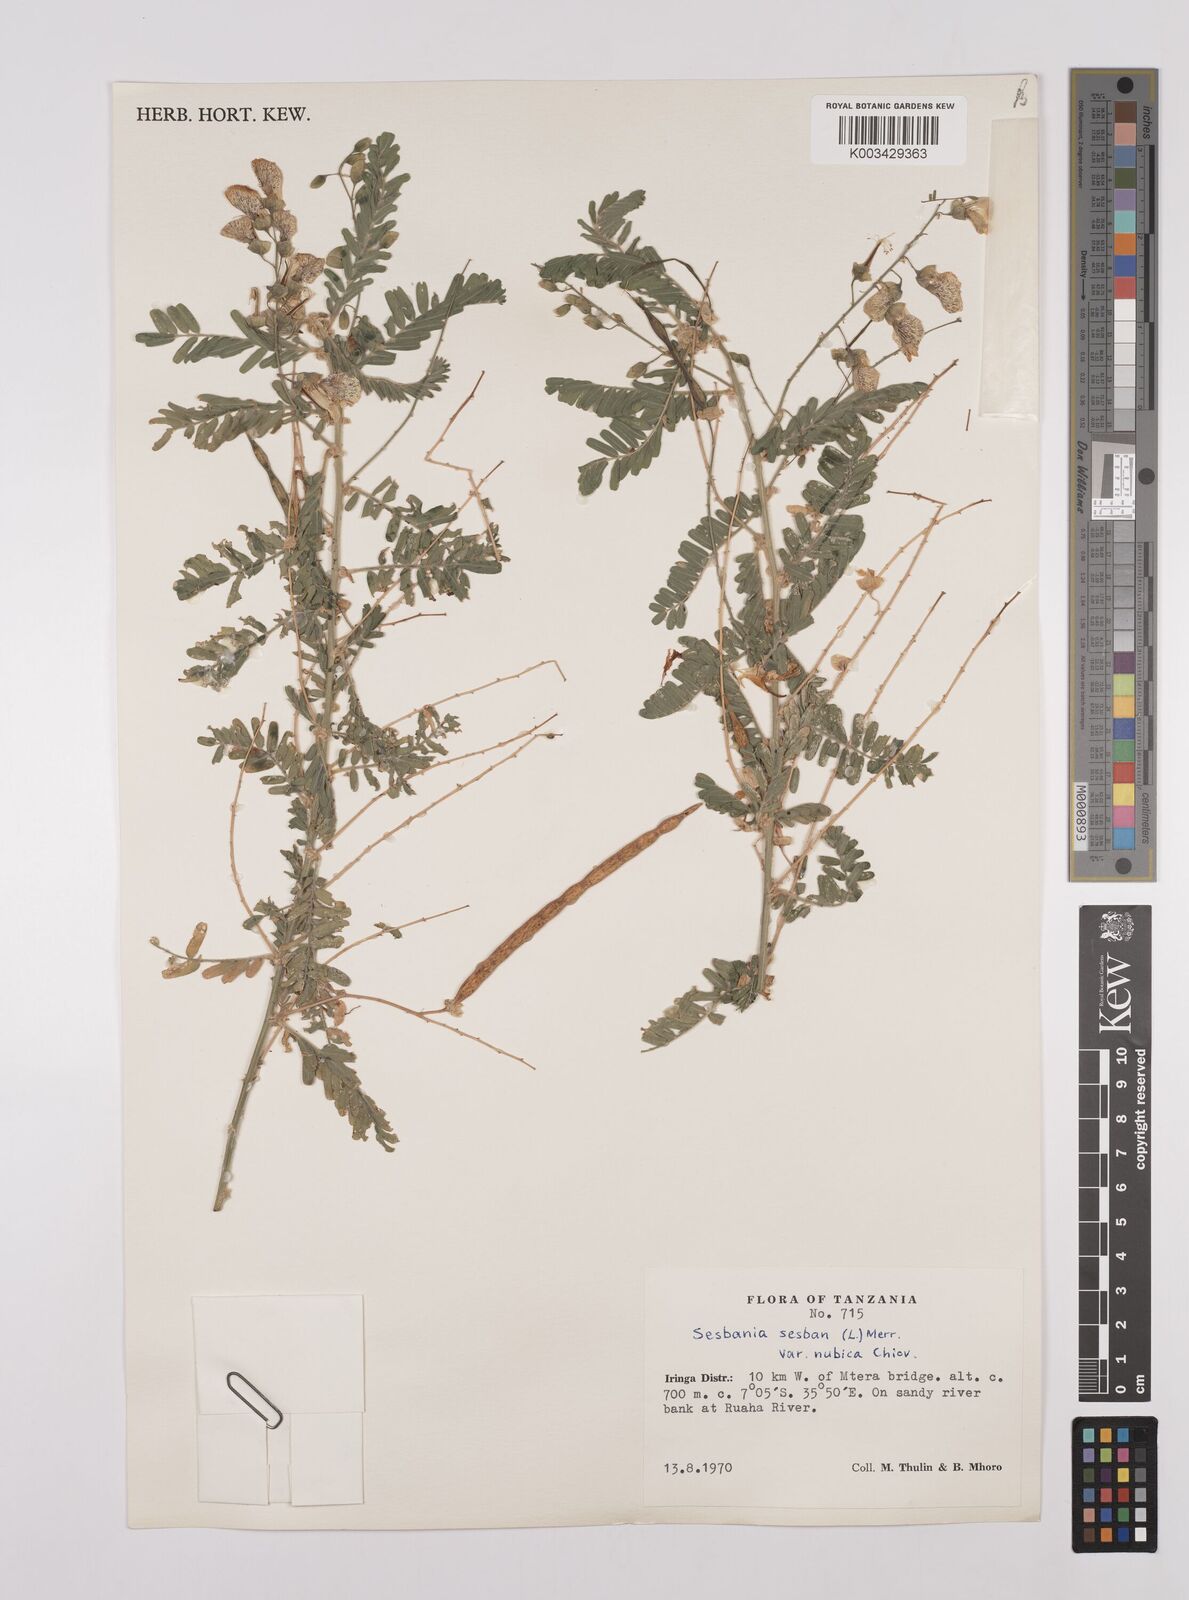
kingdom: Plantae
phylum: Tracheophyta
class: Magnoliopsida
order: Fabales
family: Fabaceae
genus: Sesbania
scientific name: Sesbania sesban
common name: Egyptian sesban
